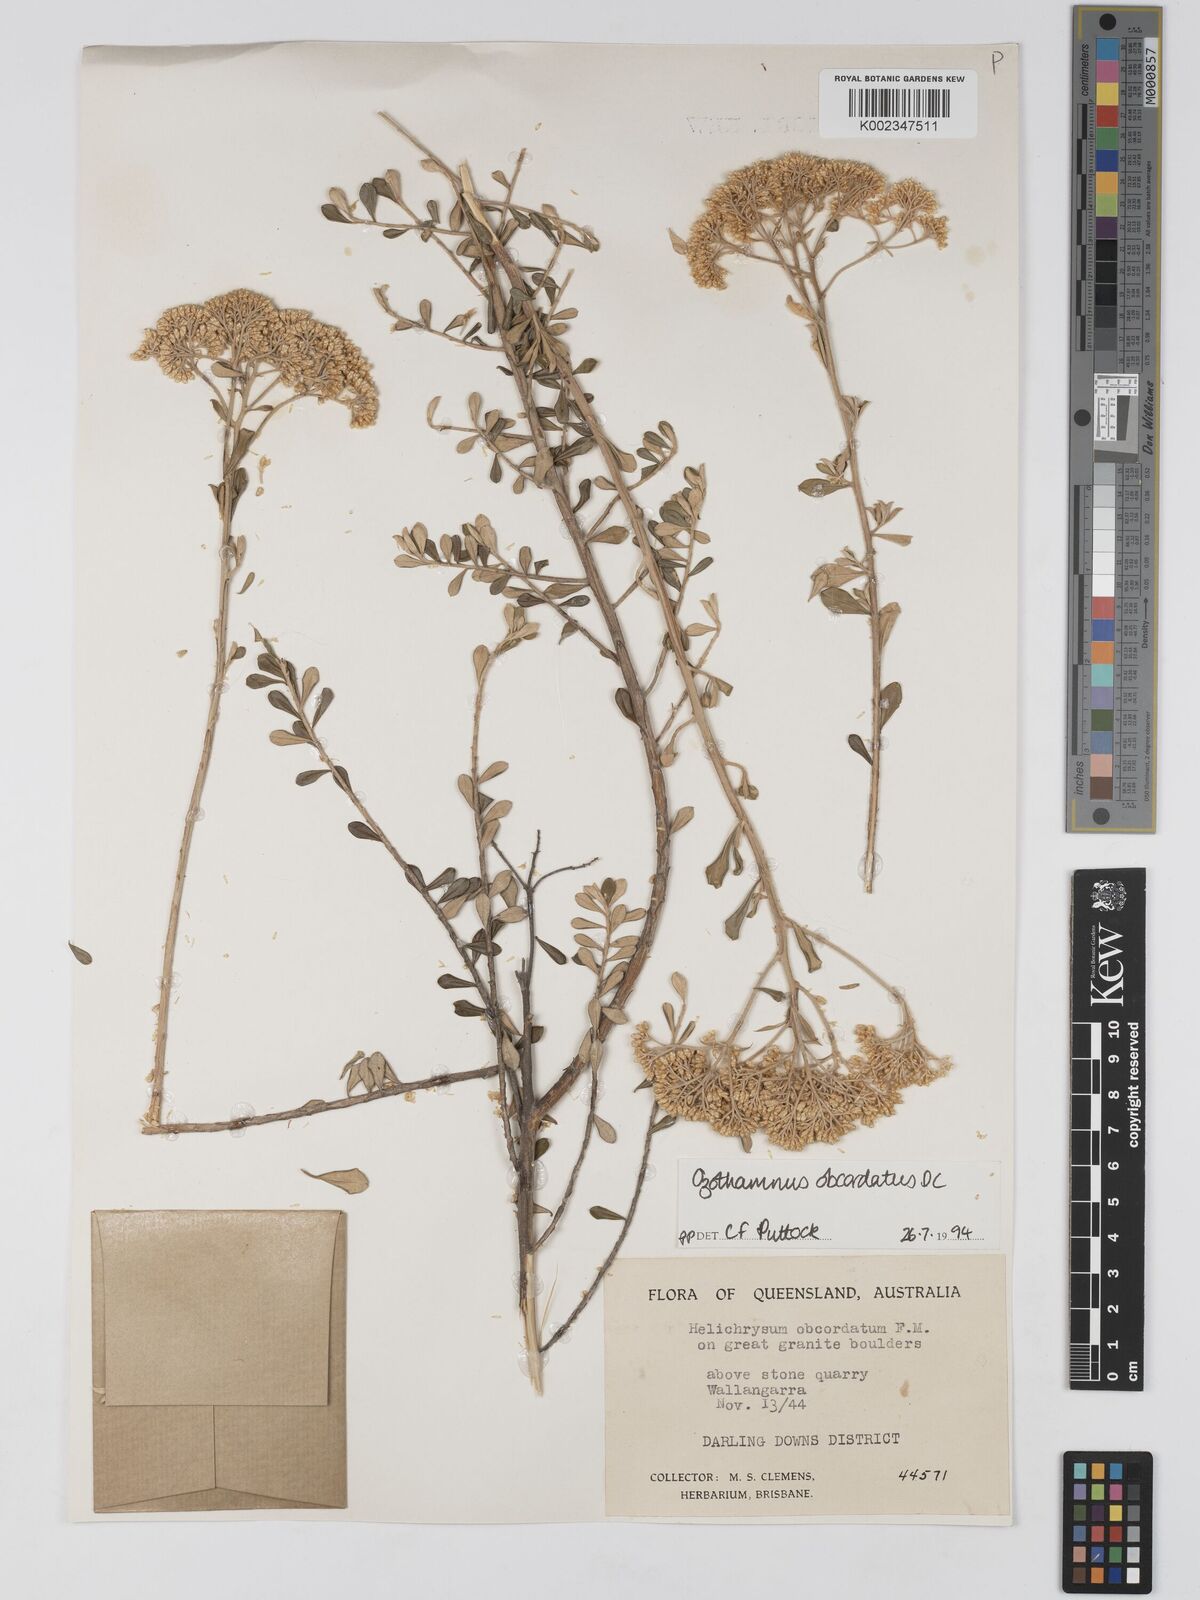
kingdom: Plantae
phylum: Tracheophyta
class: Magnoliopsida
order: Asterales
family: Asteraceae
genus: Ozothamnus
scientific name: Ozothamnus
